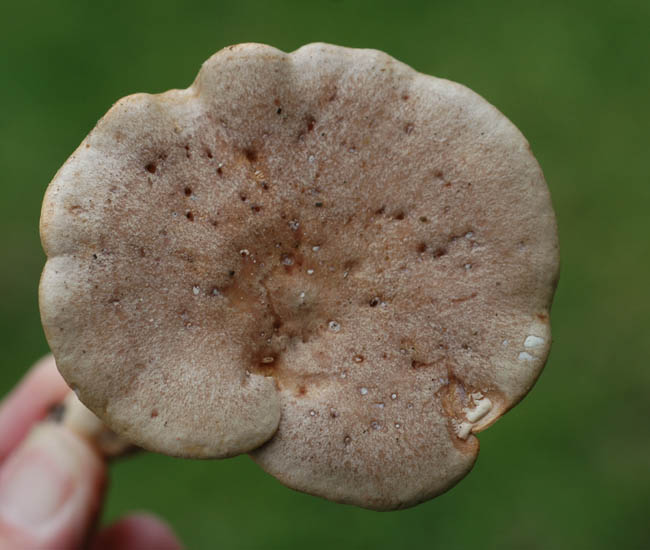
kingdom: Fungi
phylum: Basidiomycota
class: Agaricomycetes
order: Russulales
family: Russulaceae
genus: Lactarius
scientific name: Lactarius pyrogalus
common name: hassel-mælkehat
